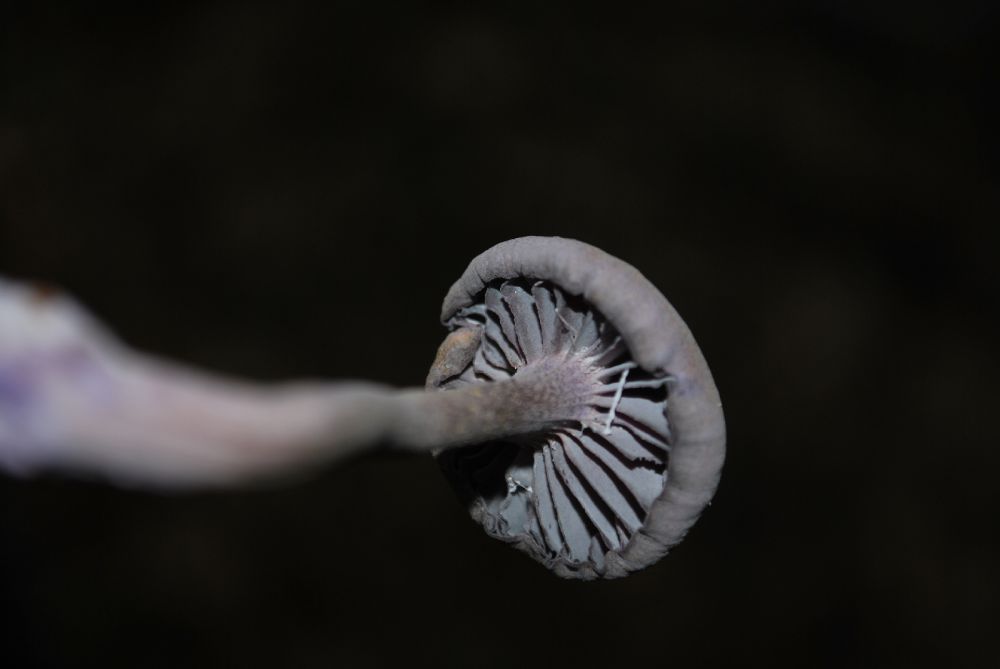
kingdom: Fungi
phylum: Basidiomycota
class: Agaricomycetes
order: Agaricales
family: Hydnangiaceae
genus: Laccaria
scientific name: Laccaria amethystina
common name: violet ametysthat
